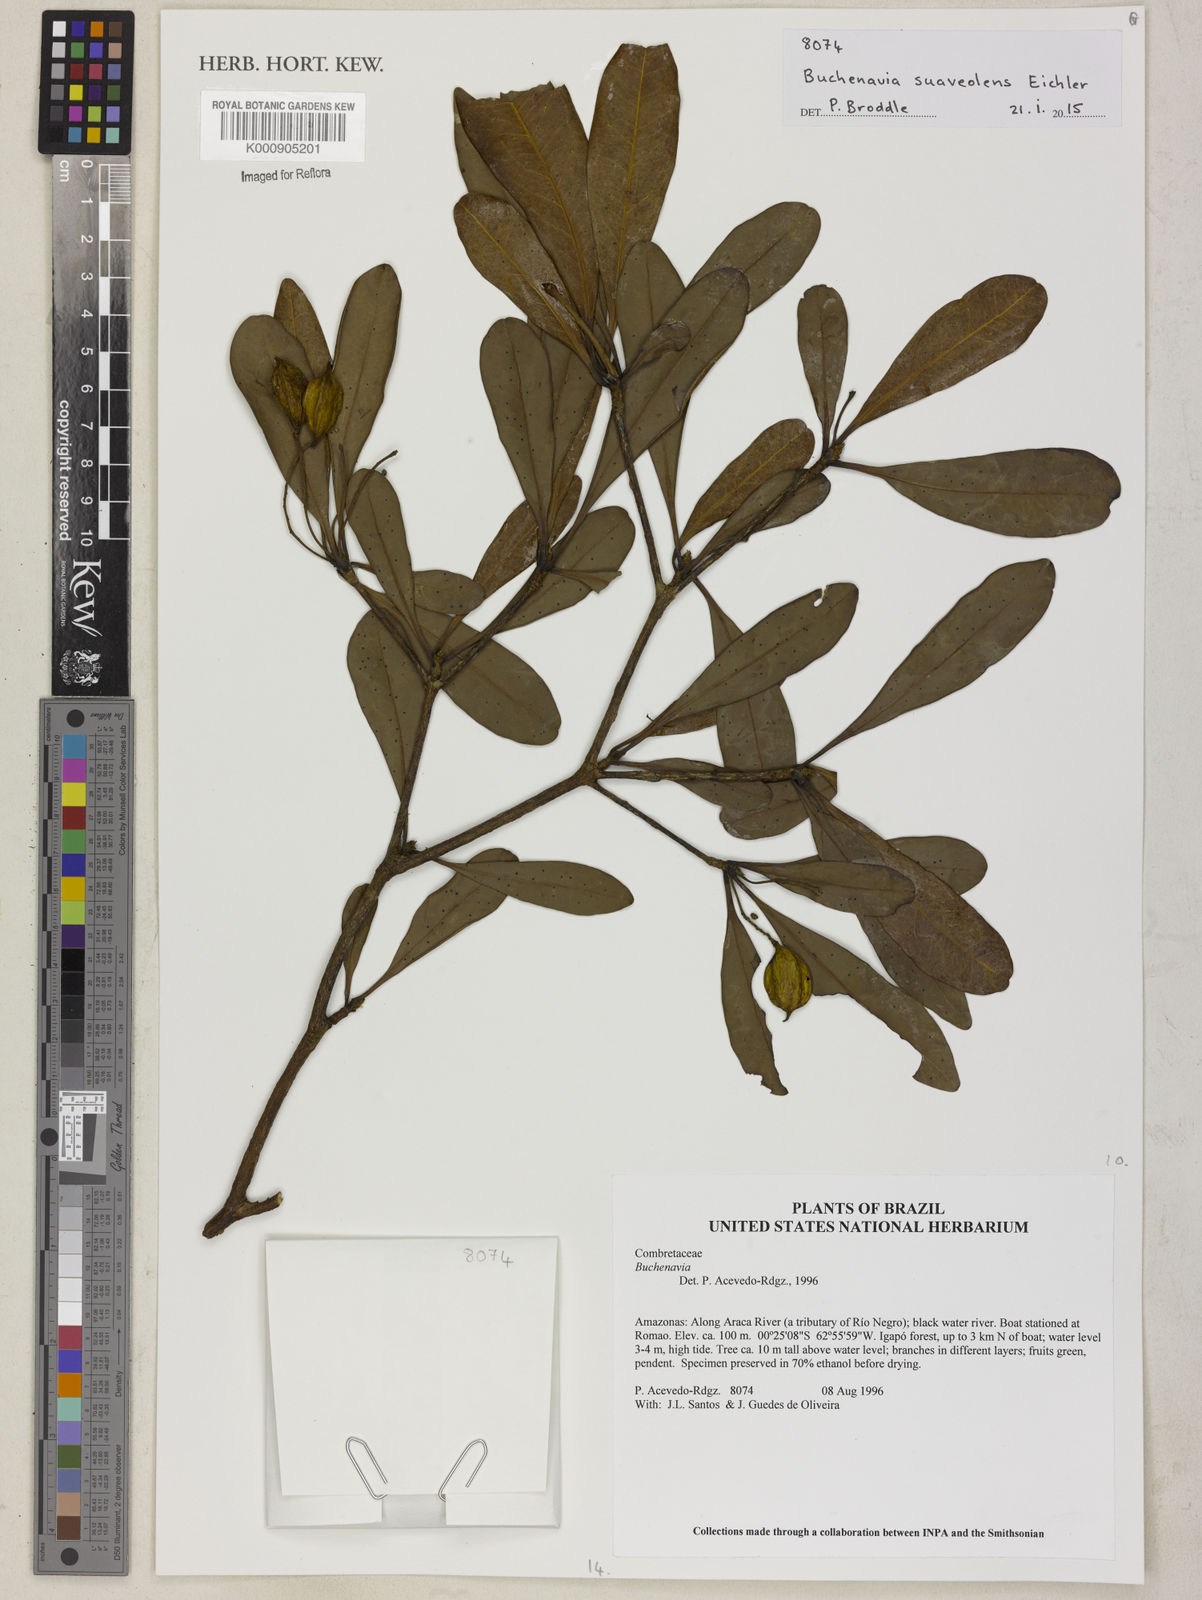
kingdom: Plantae
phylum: Tracheophyta
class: Magnoliopsida
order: Myrtales
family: Combretaceae
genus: Terminalia
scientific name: Terminalia suaveolens
